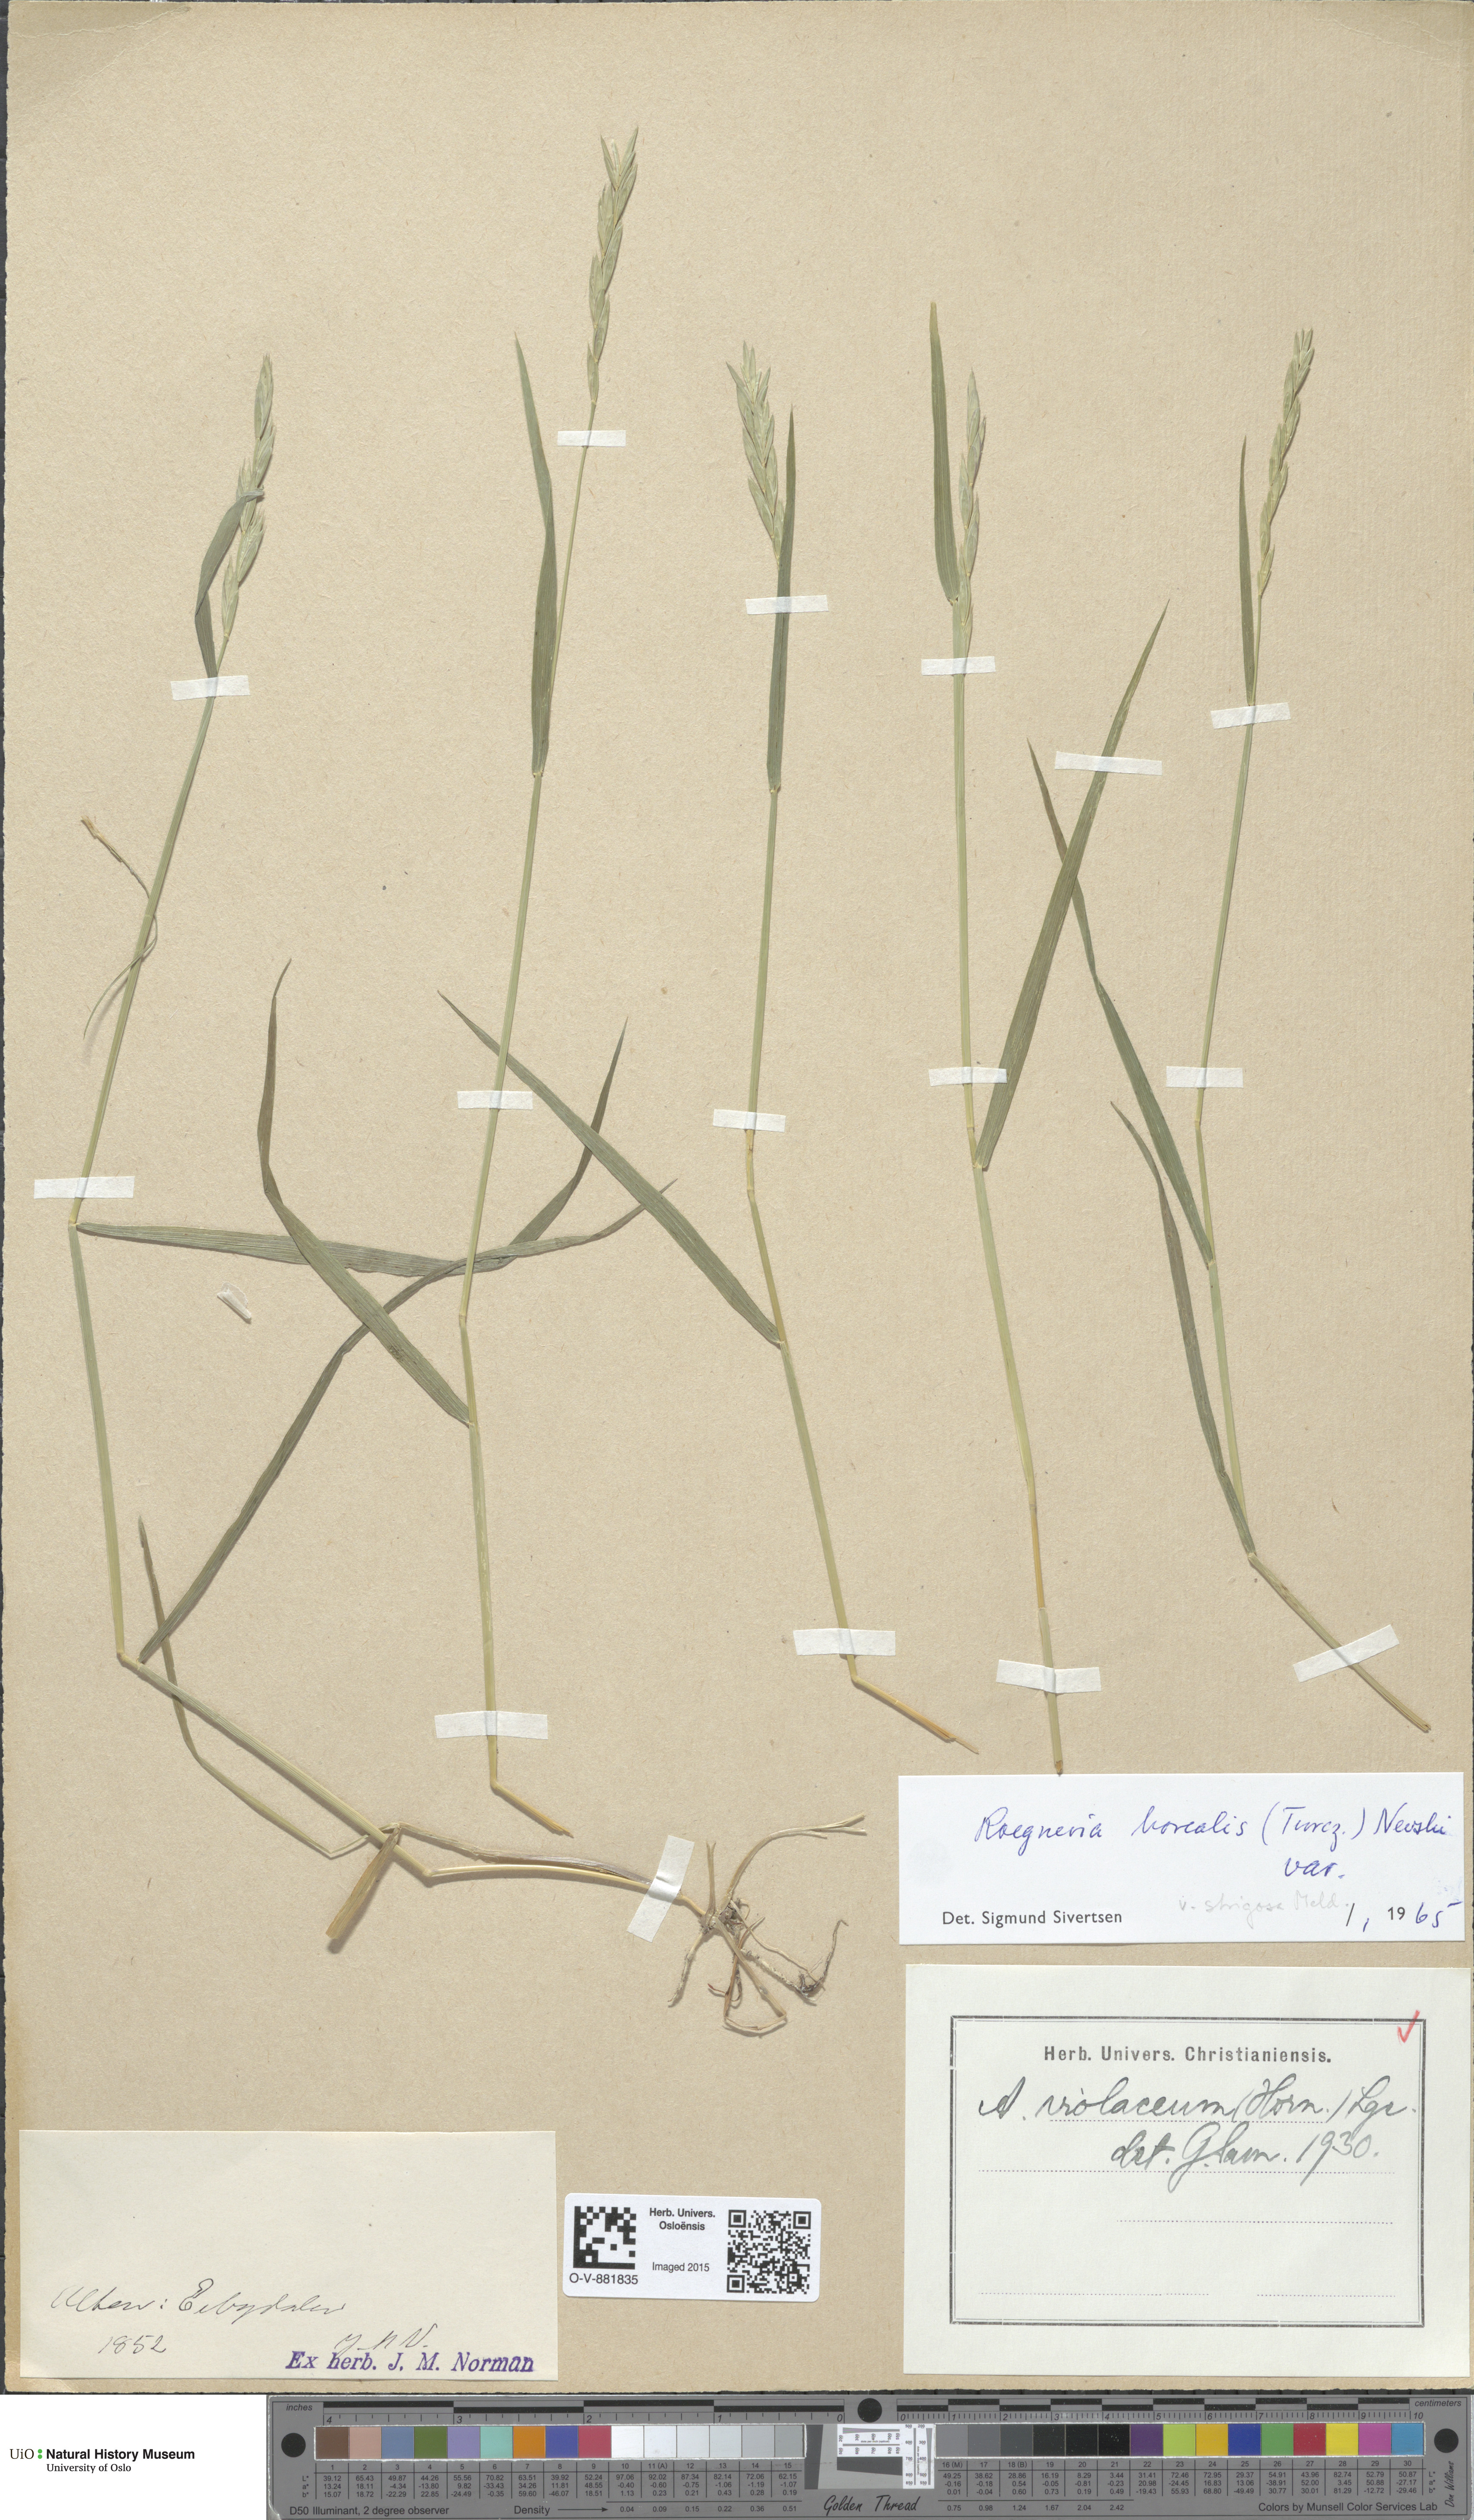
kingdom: Plantae
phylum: Tracheophyta
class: Liliopsida
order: Poales
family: Poaceae
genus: Elymus
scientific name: Elymus macrourus
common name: Northern wheatgrass
